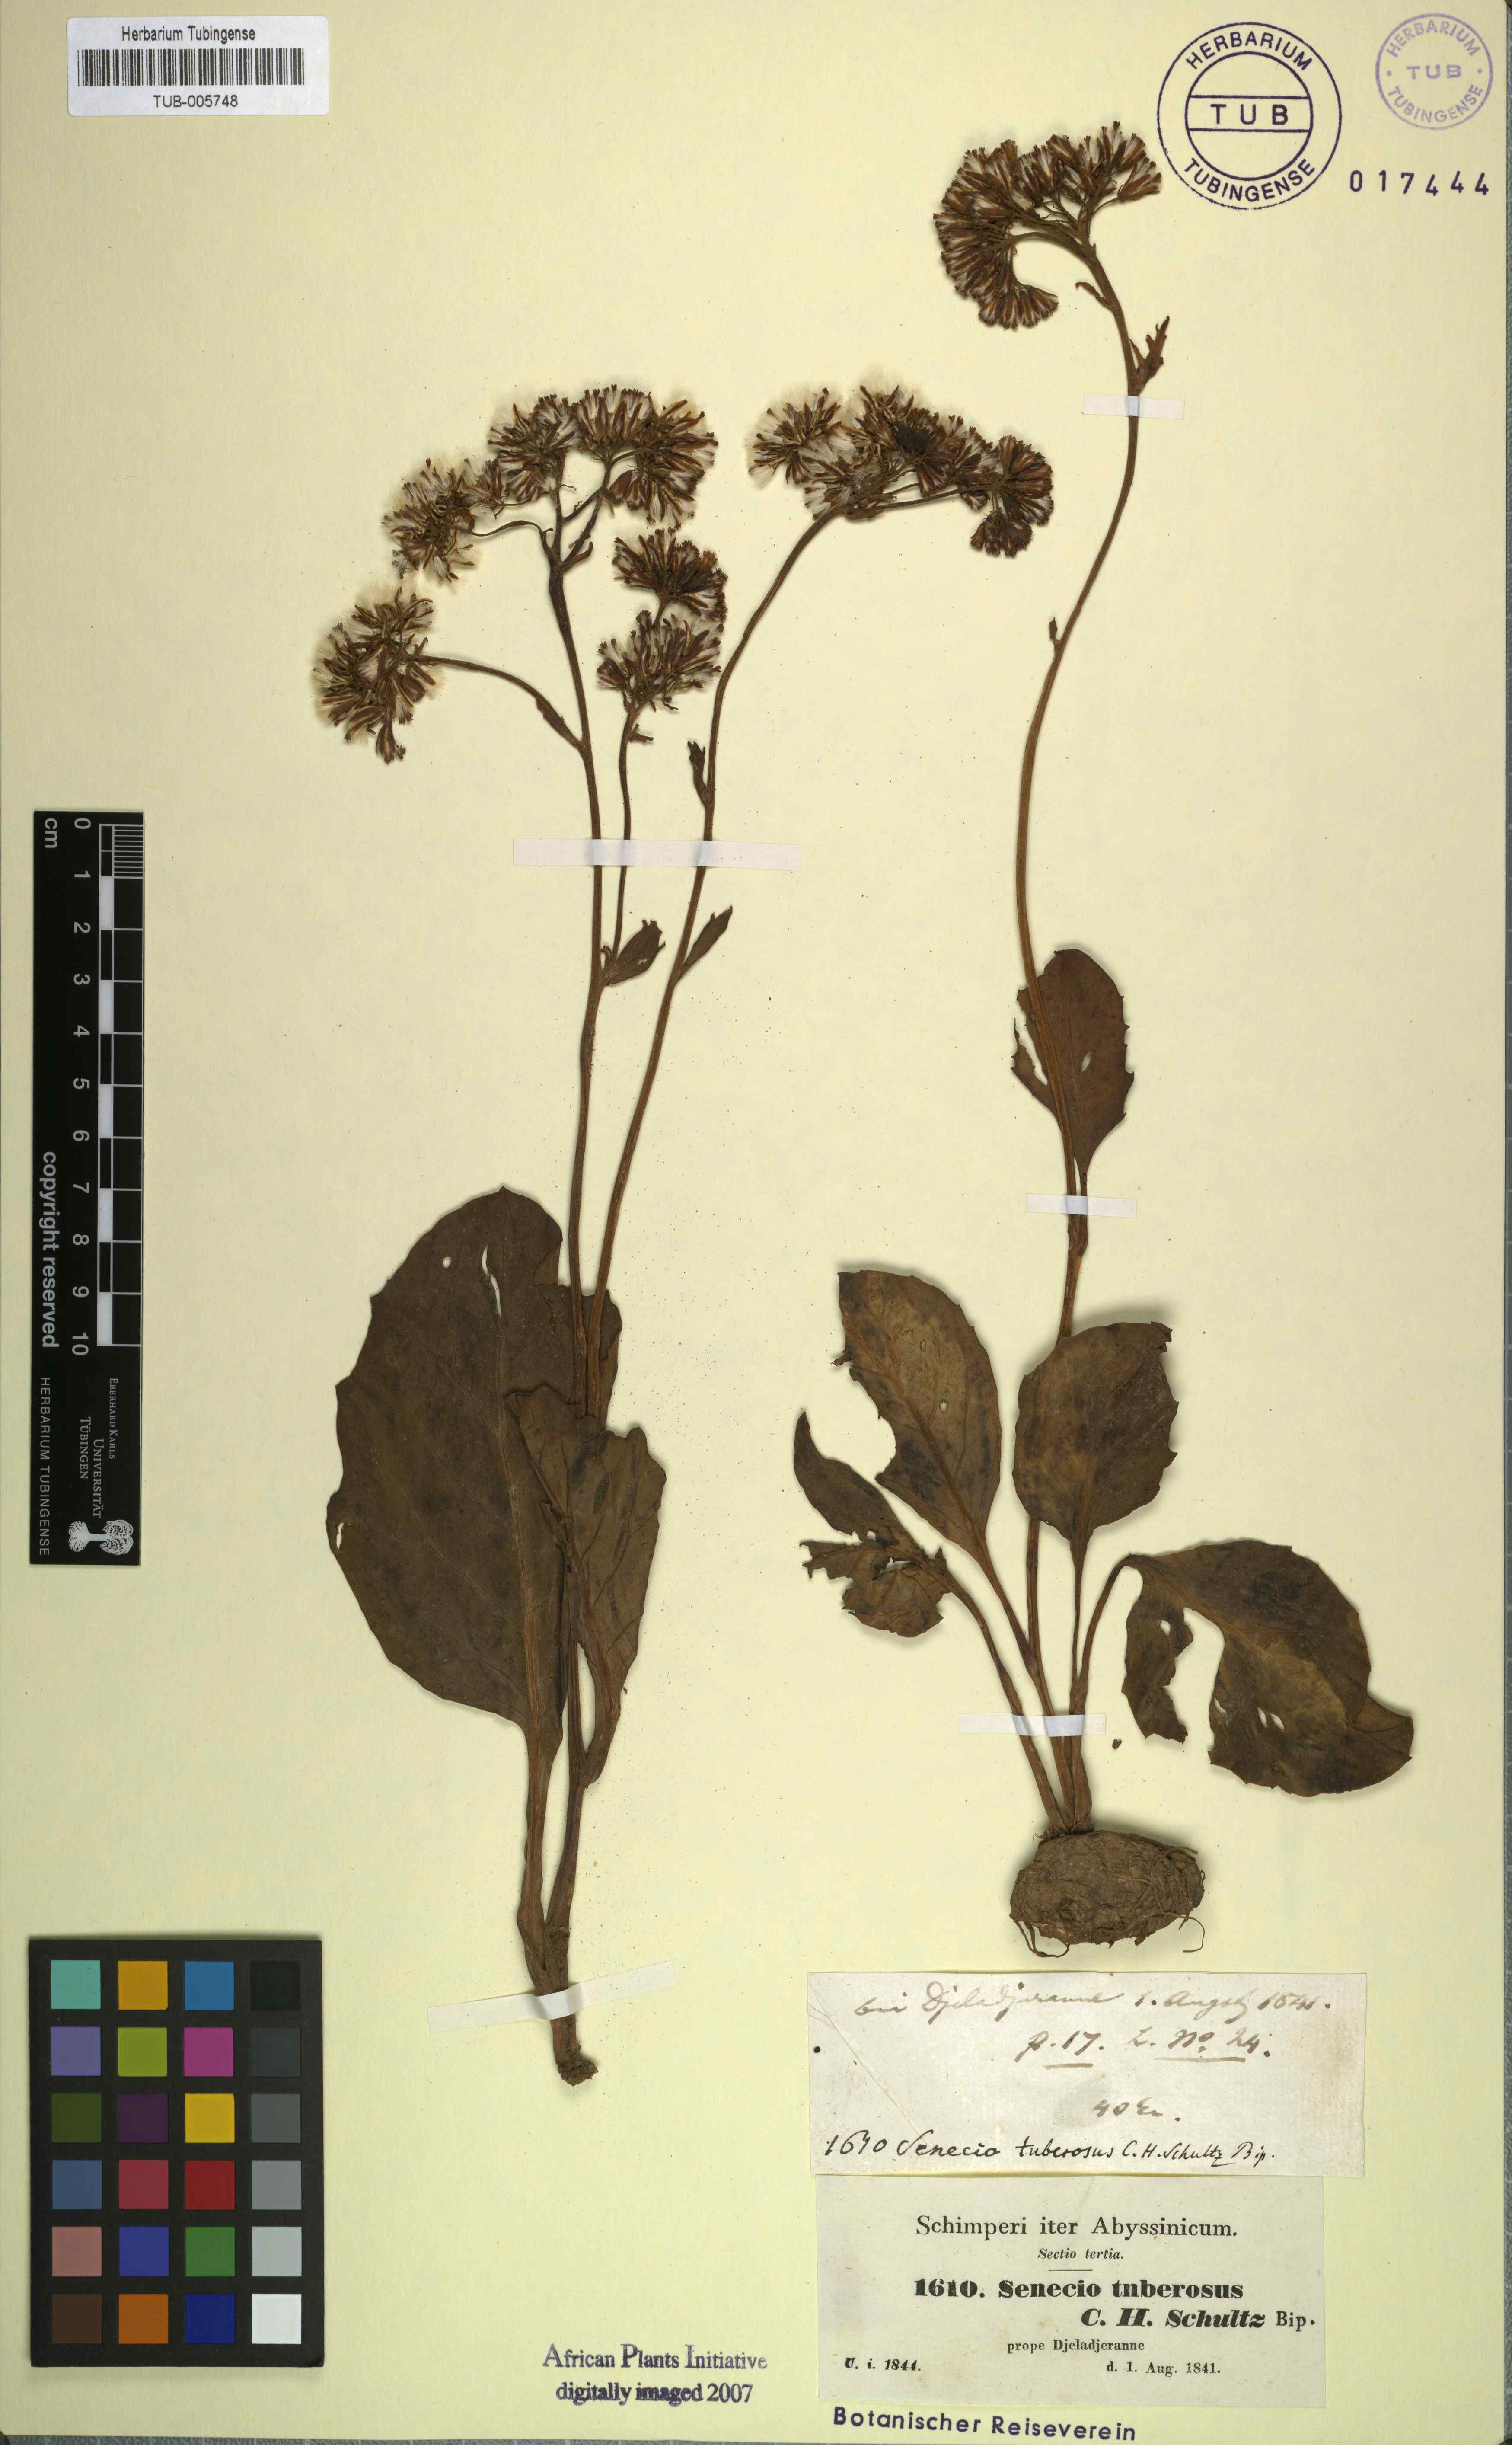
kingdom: Plantae
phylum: Tracheophyta
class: Magnoliopsida
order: Asterales
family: Asteraceae
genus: Solanecio
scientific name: Solanecio tuberosus
